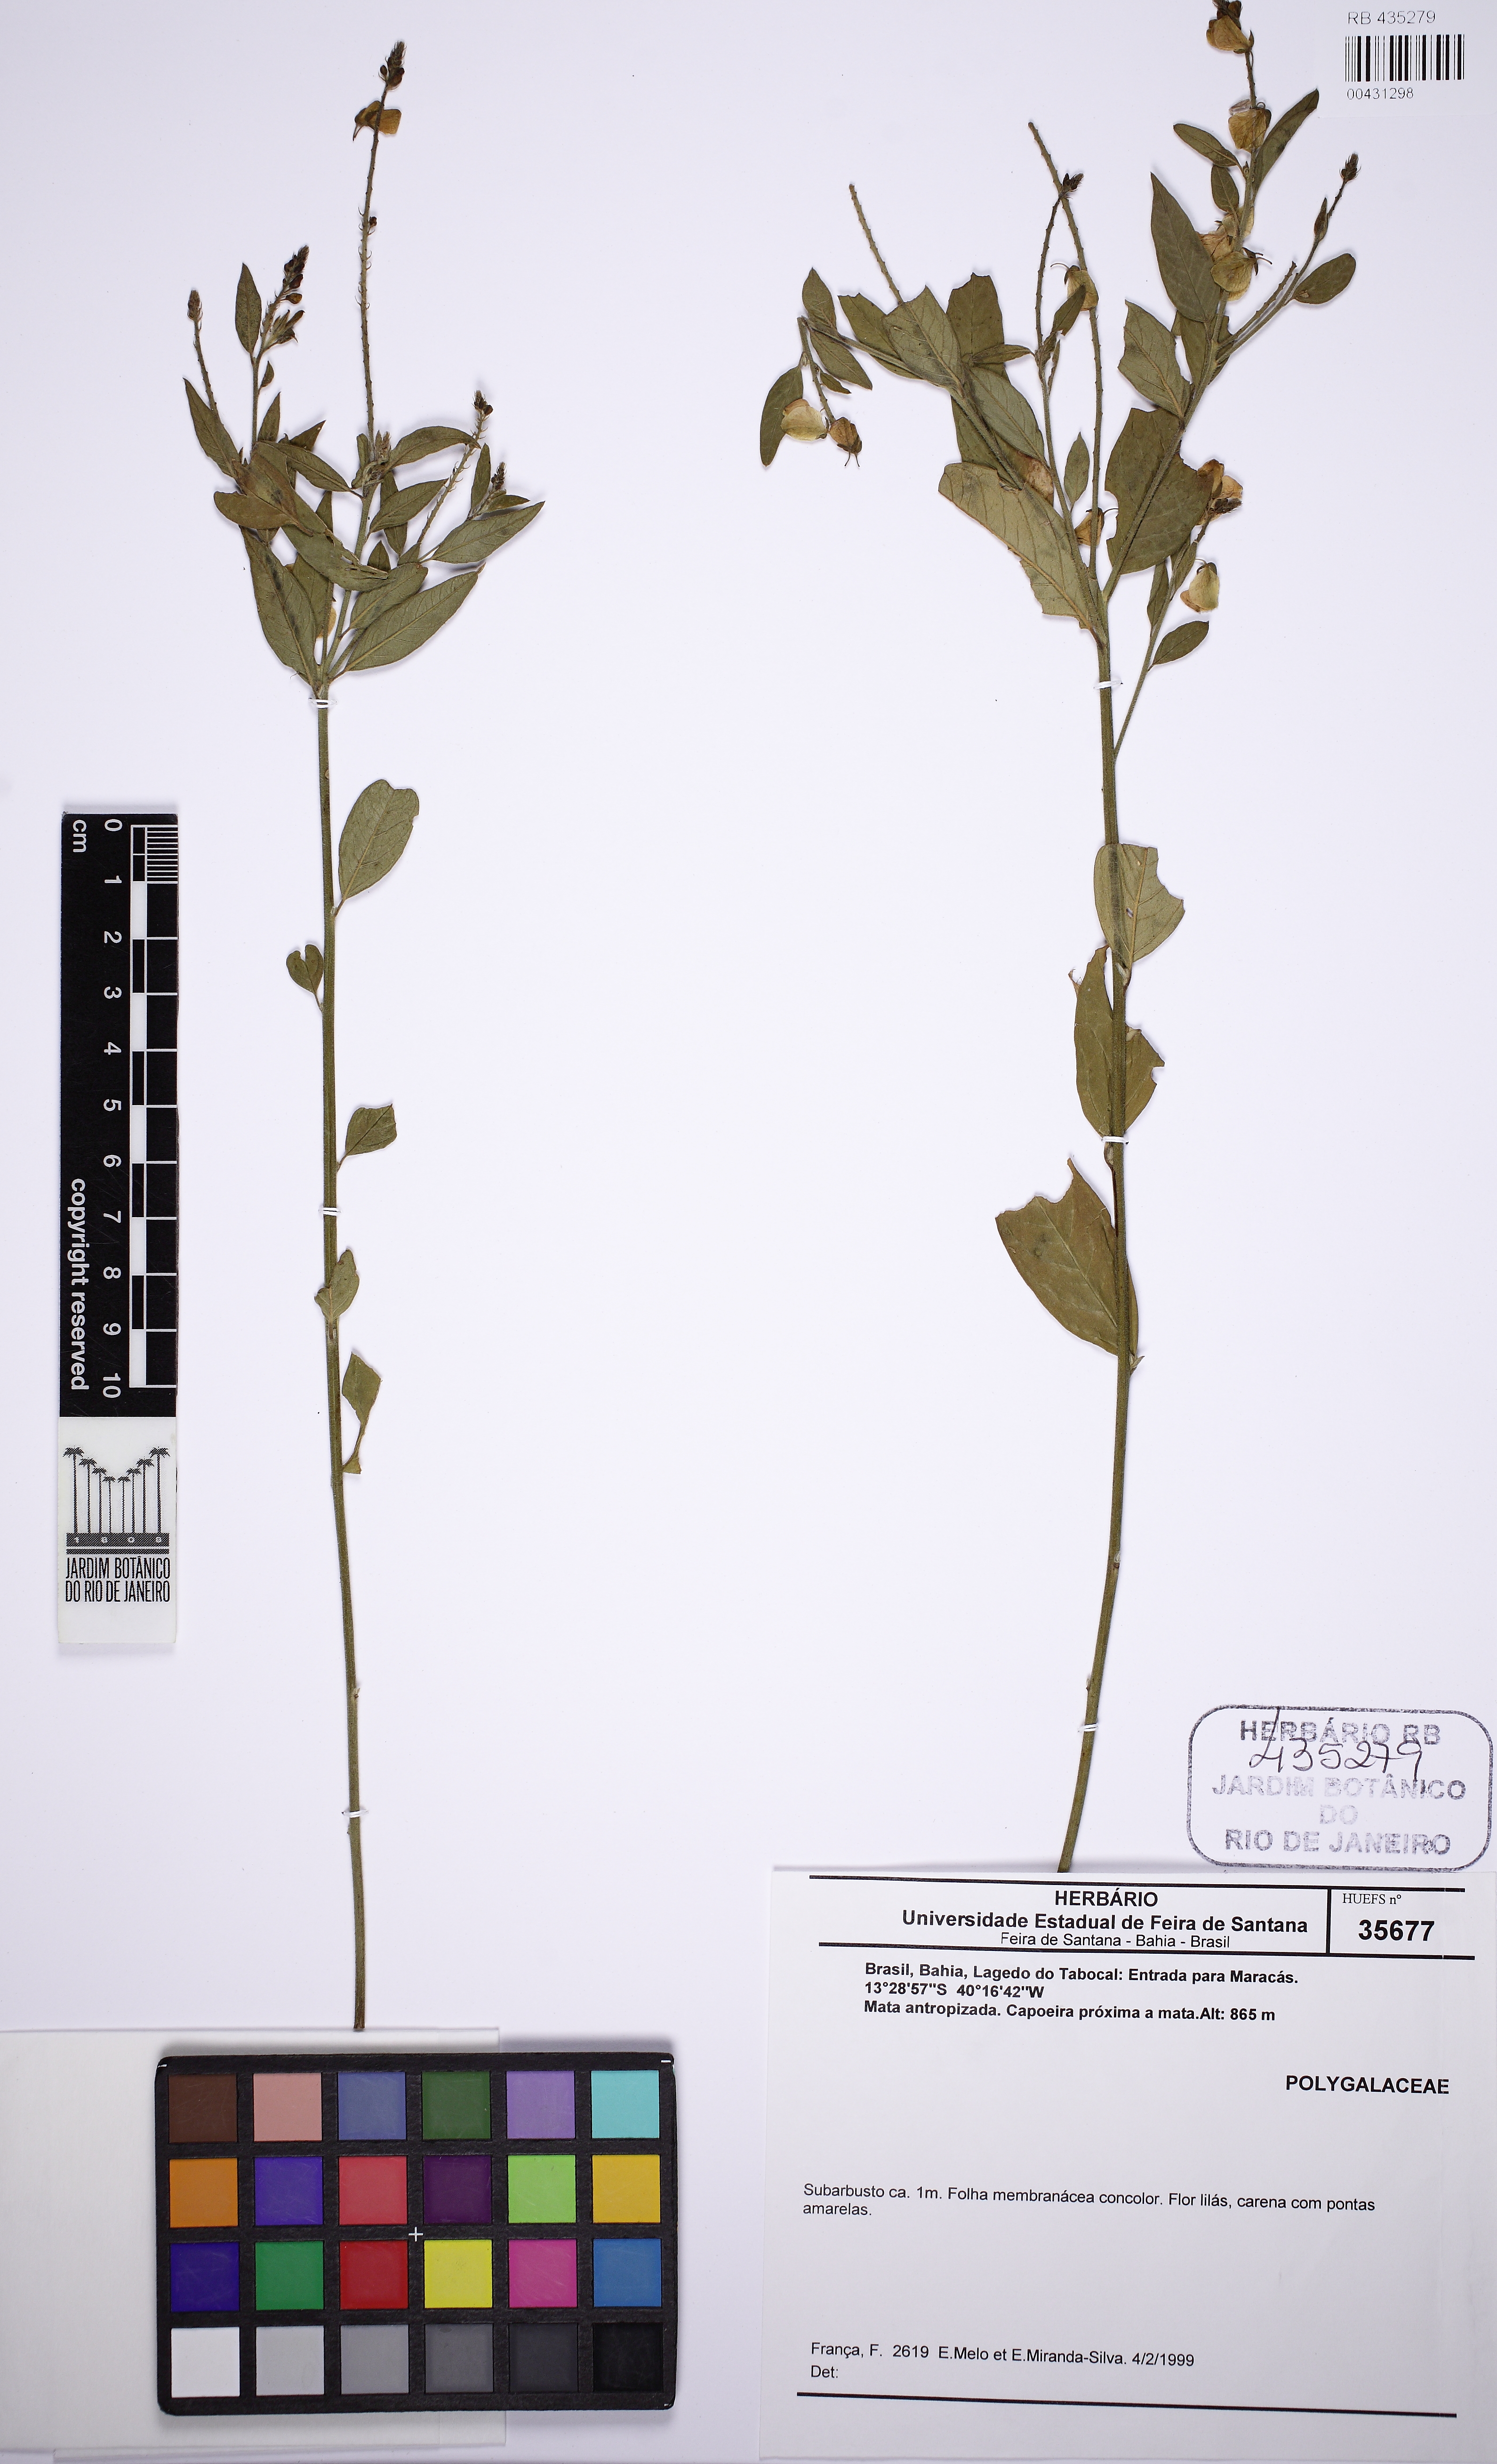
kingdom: Plantae
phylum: Tracheophyta
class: Magnoliopsida
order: Fabales
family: Polygalaceae
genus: Asemeia
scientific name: Asemeia
